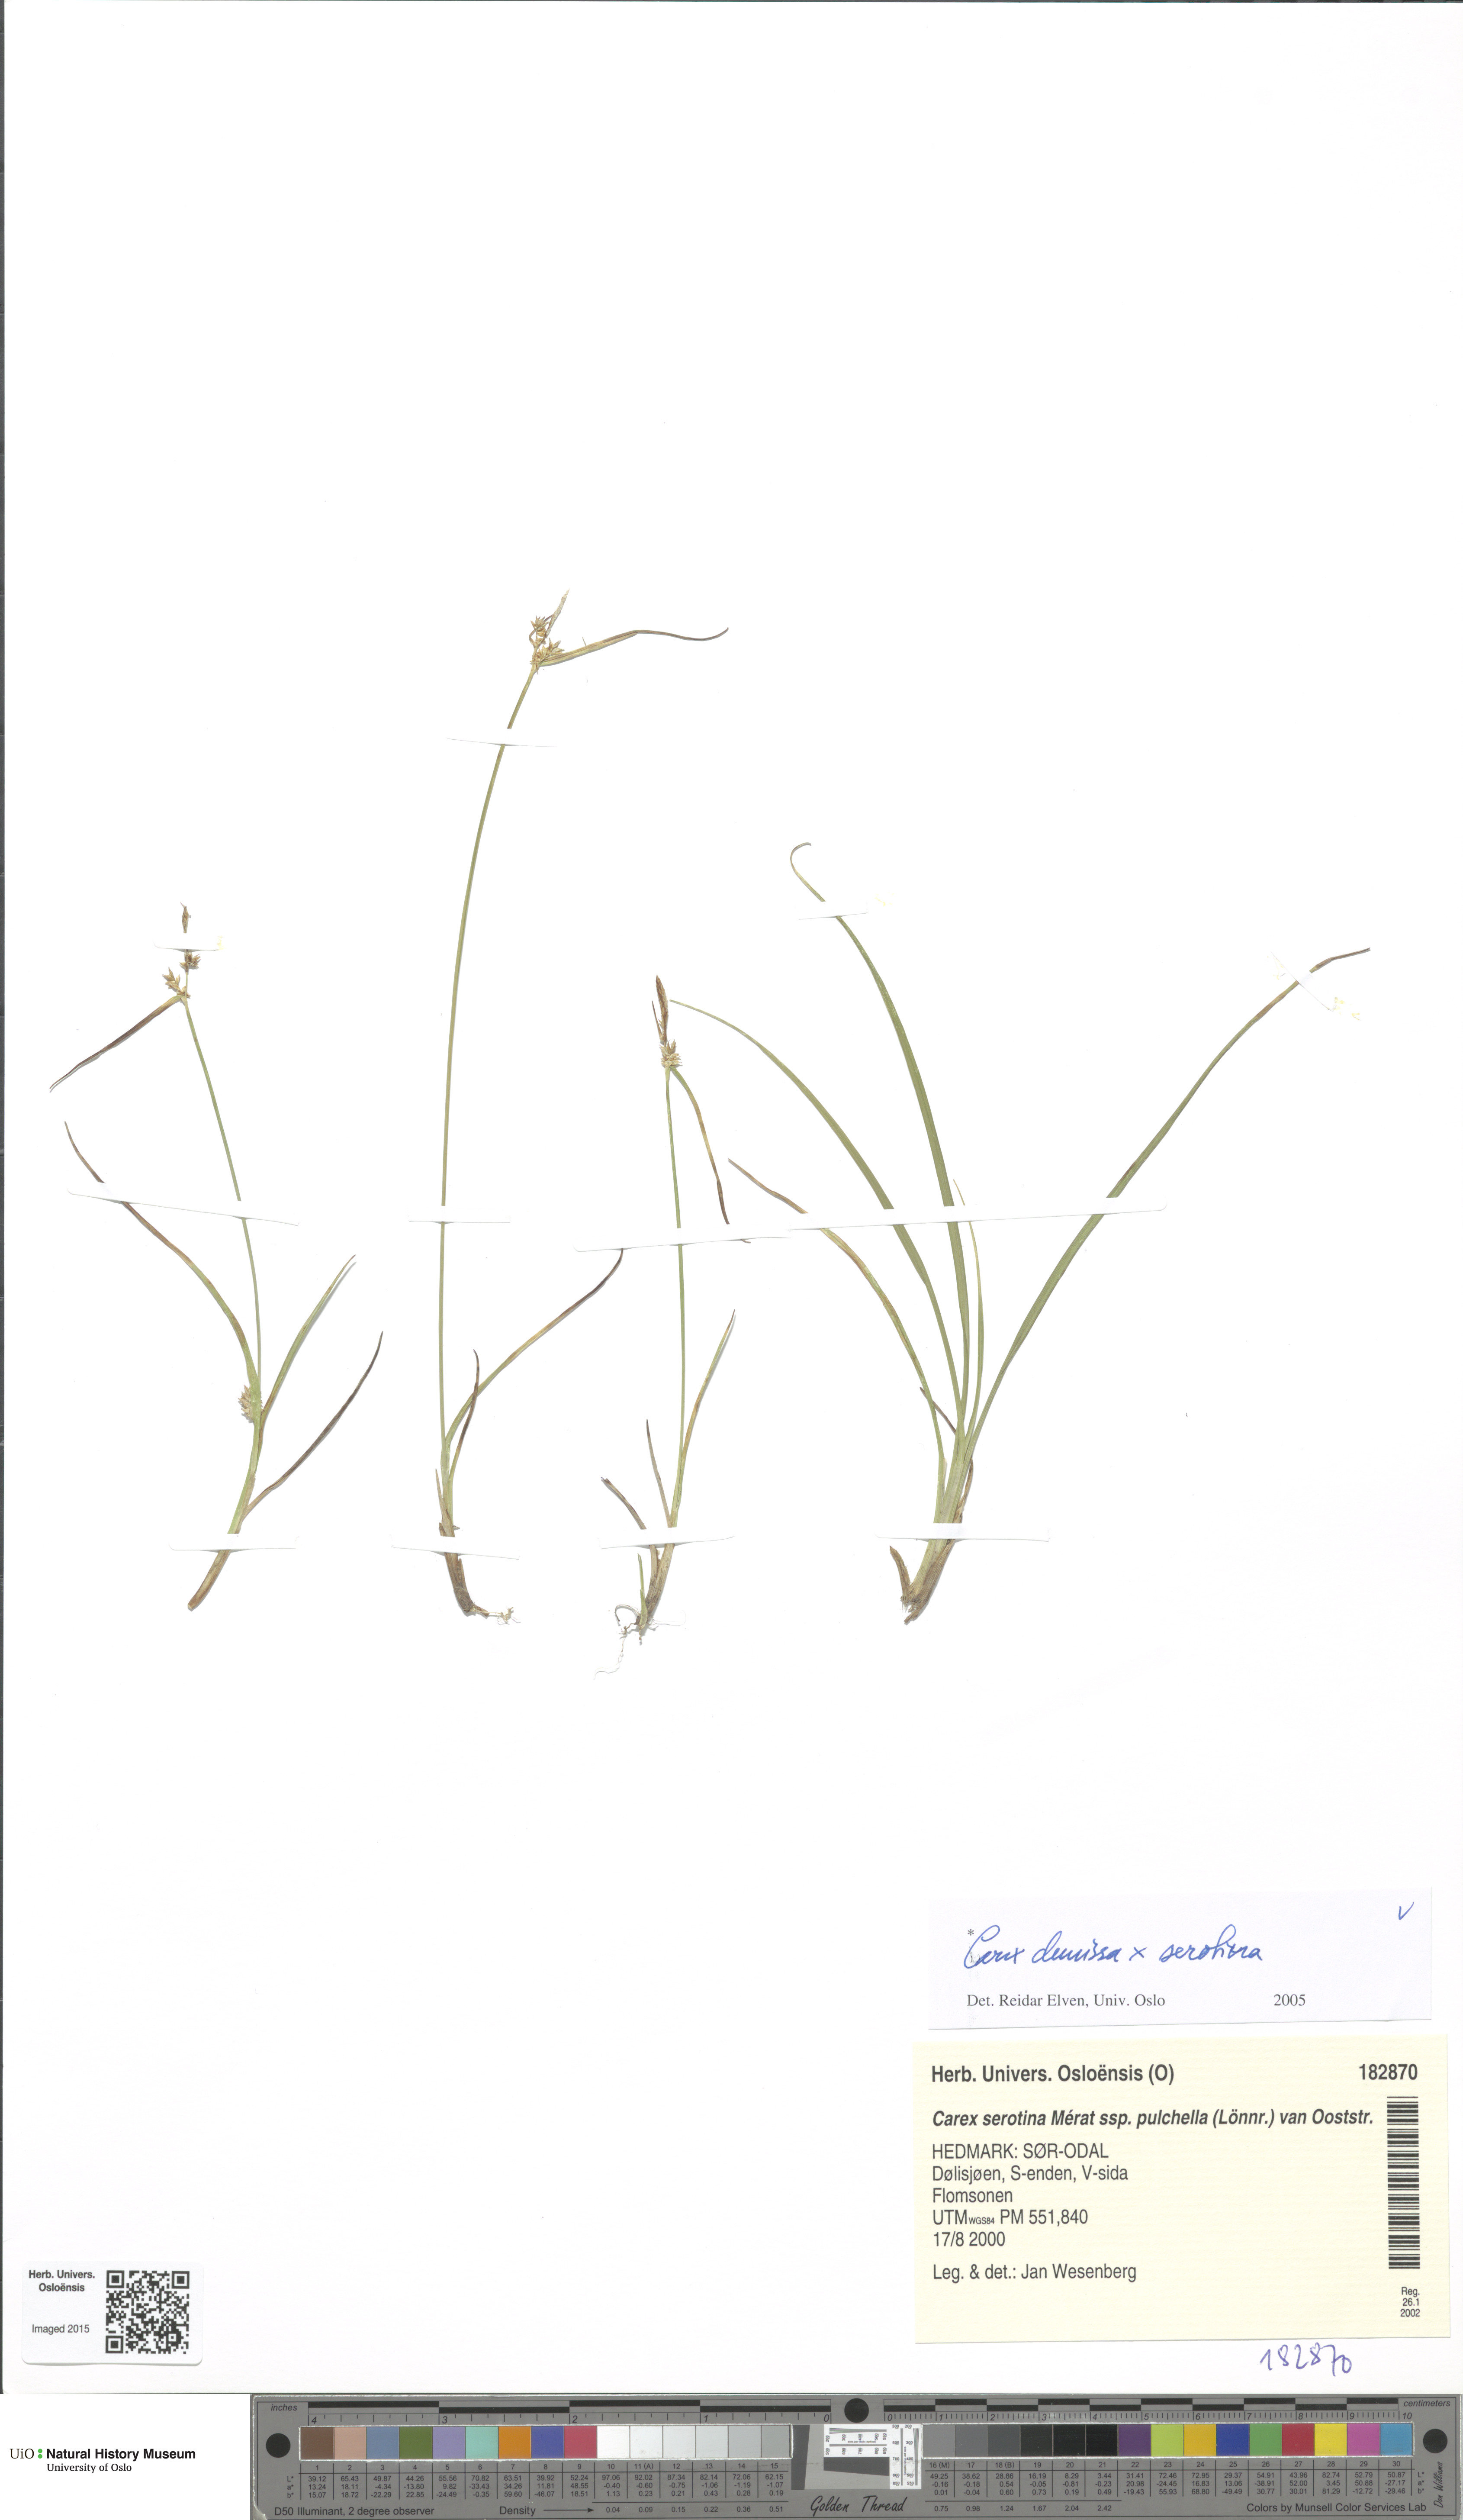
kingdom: Plantae
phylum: Tracheophyta
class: Liliopsida
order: Poales
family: Cyperaceae
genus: Carex
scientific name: Carex
